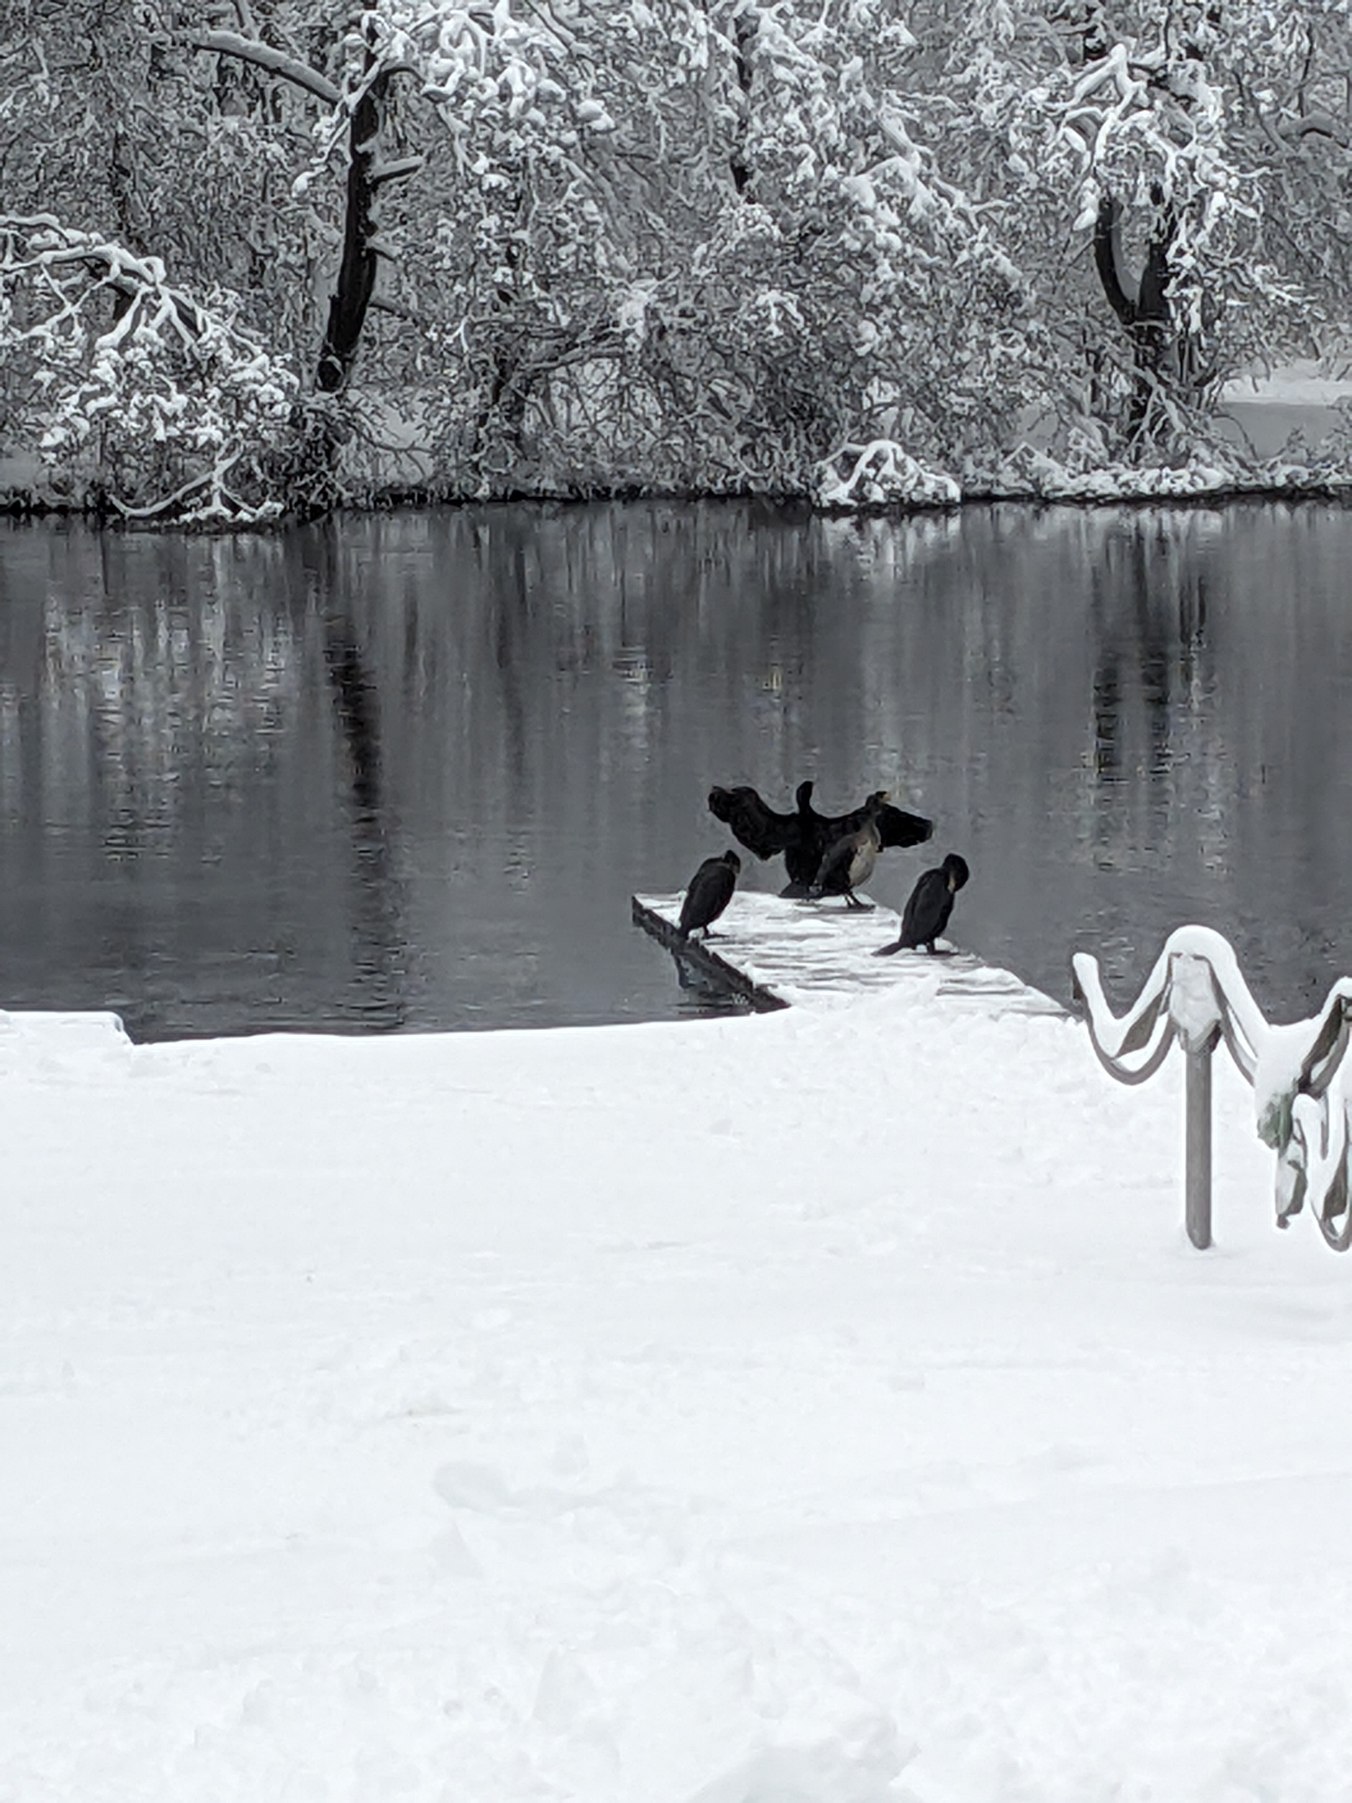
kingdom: Animalia
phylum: Chordata
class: Aves
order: Suliformes
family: Phalacrocoracidae
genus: Phalacrocorax
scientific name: Phalacrocorax carbo
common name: Skarv
